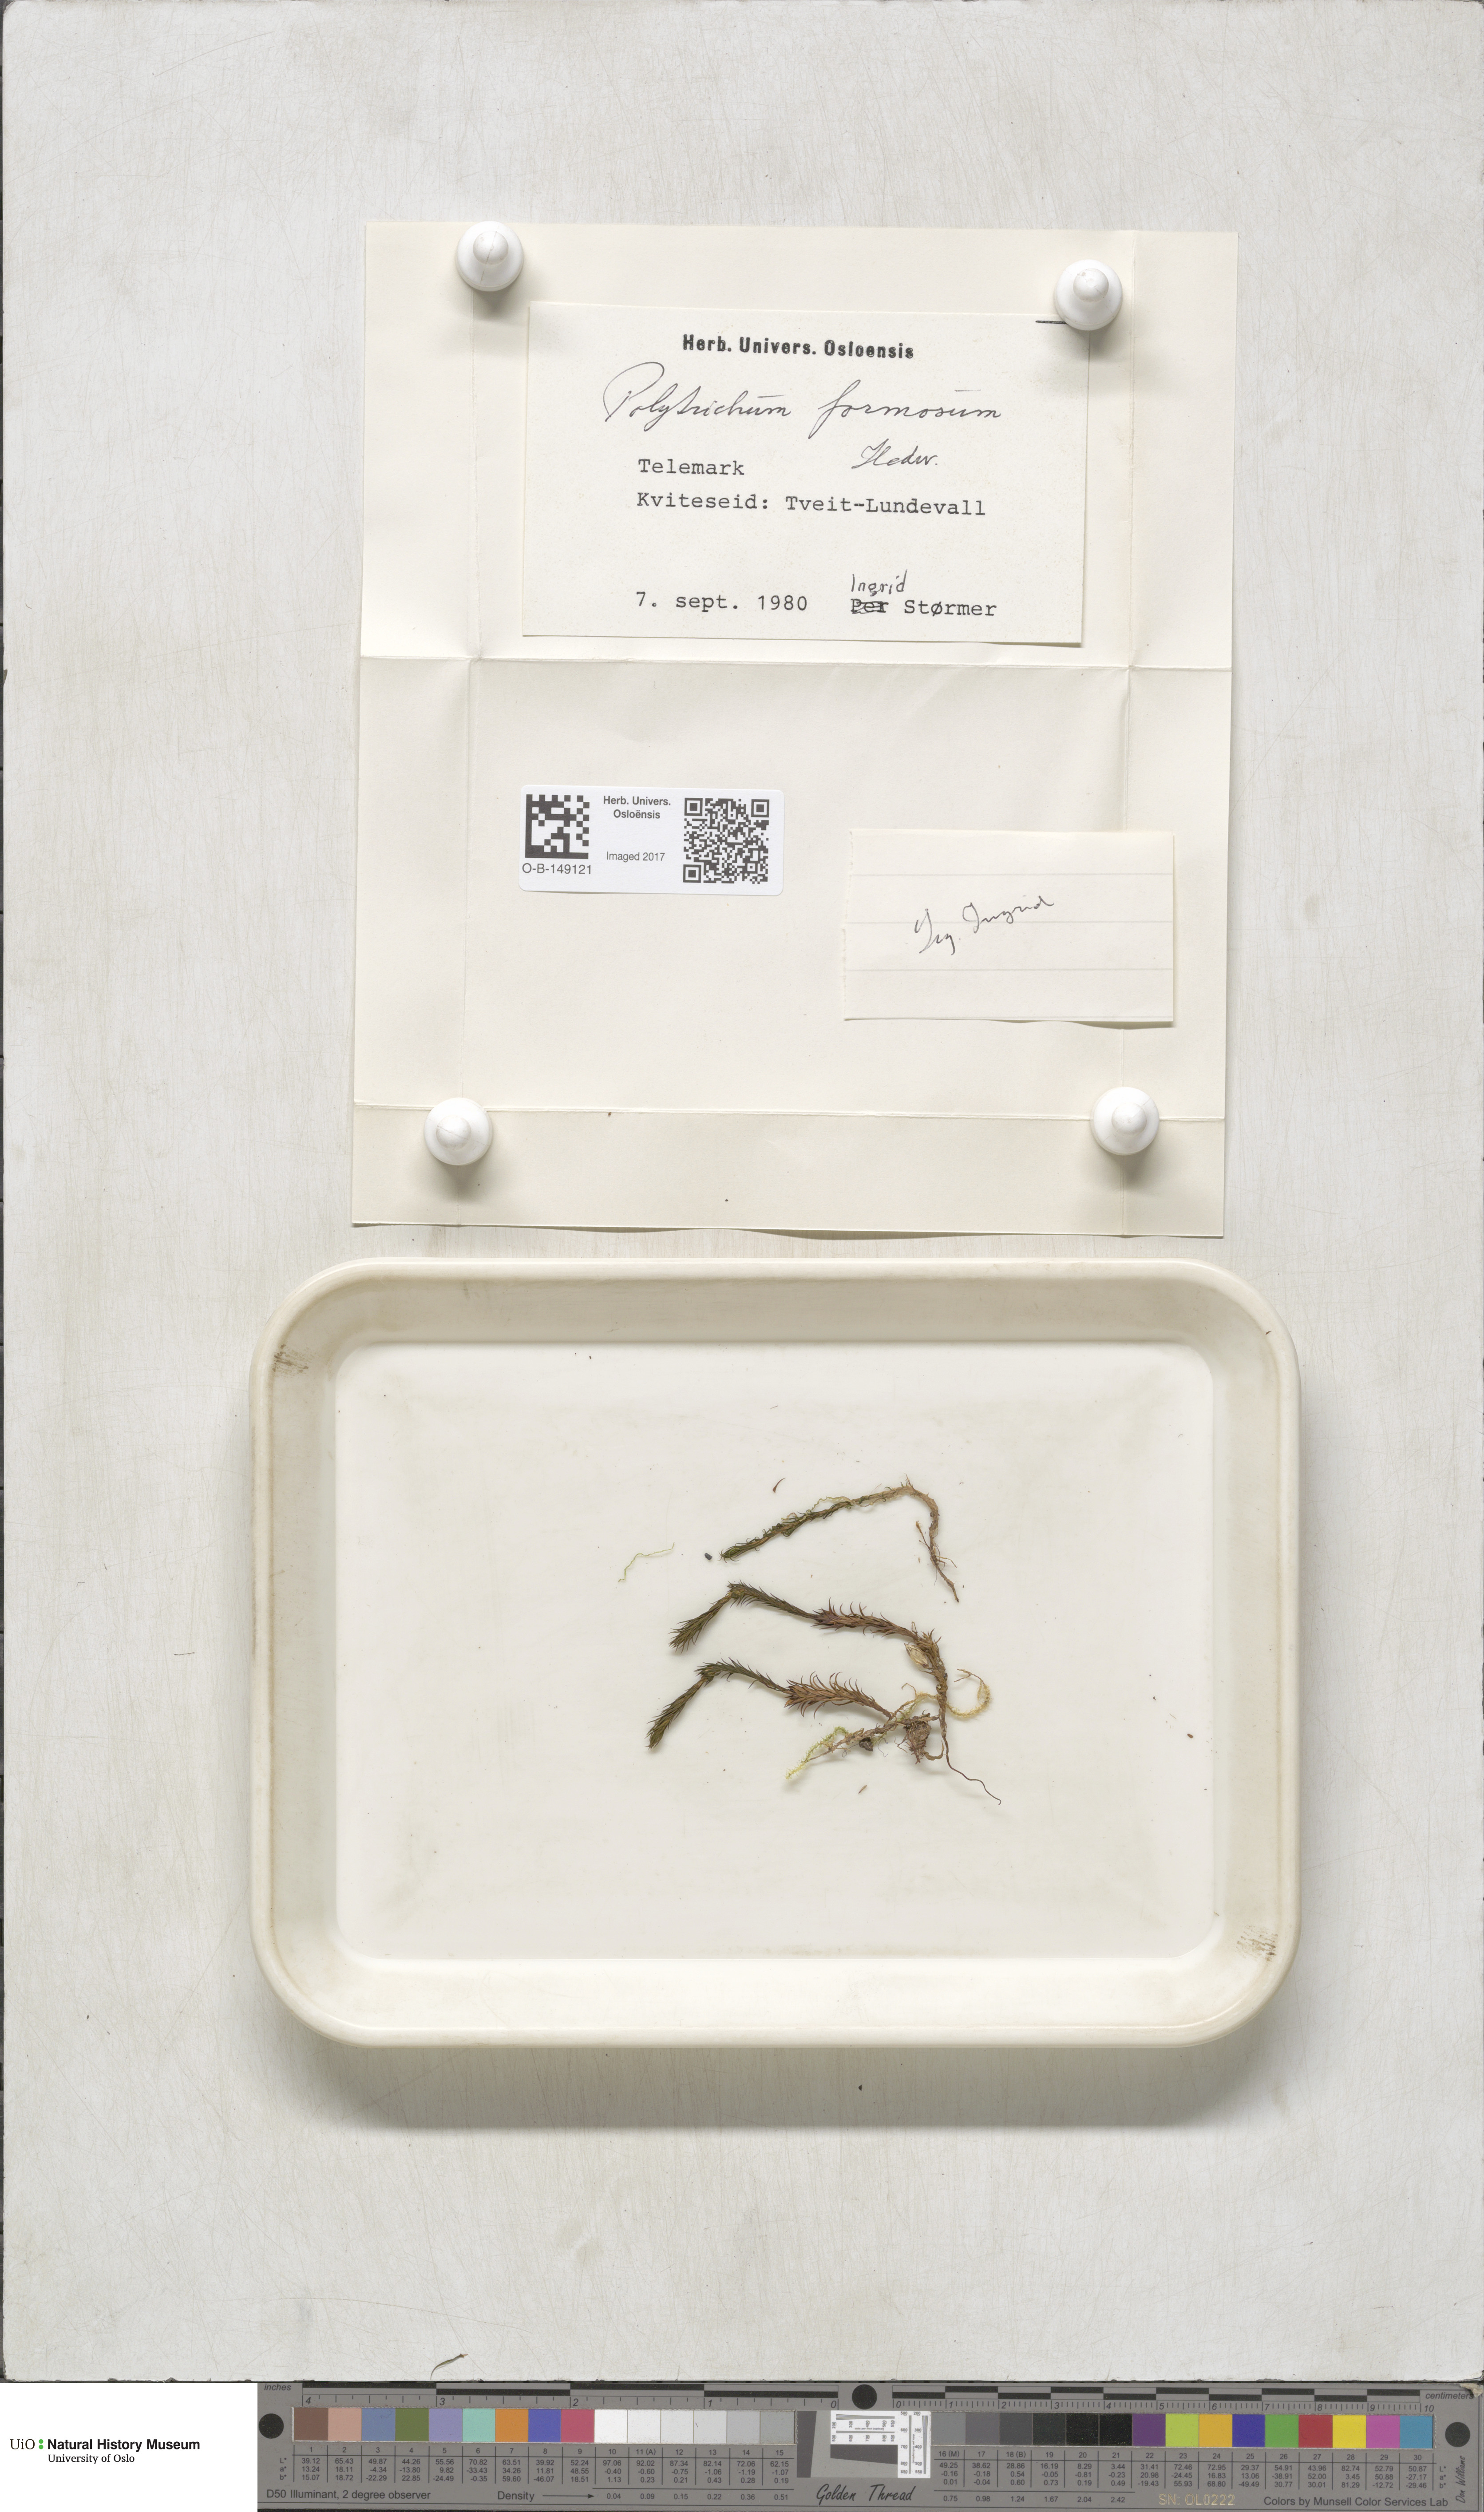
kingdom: Plantae
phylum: Bryophyta
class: Polytrichopsida
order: Polytrichales
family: Polytrichaceae
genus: Polytrichum
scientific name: Polytrichum formosum
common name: Bank haircap moss
